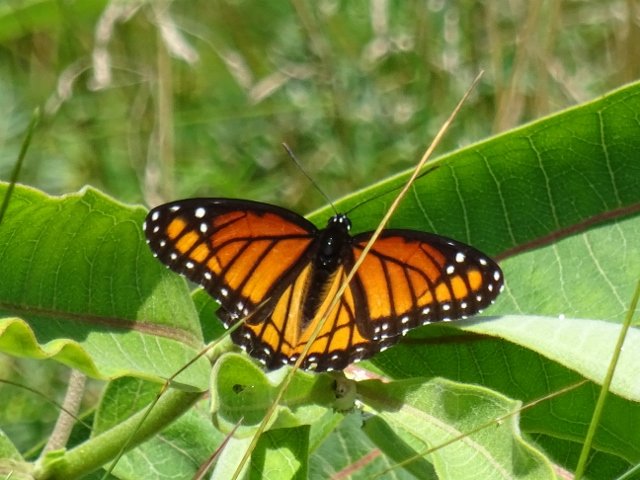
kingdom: Animalia
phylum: Arthropoda
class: Insecta
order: Lepidoptera
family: Nymphalidae
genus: Limenitis
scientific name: Limenitis archippus
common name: Viceroy
